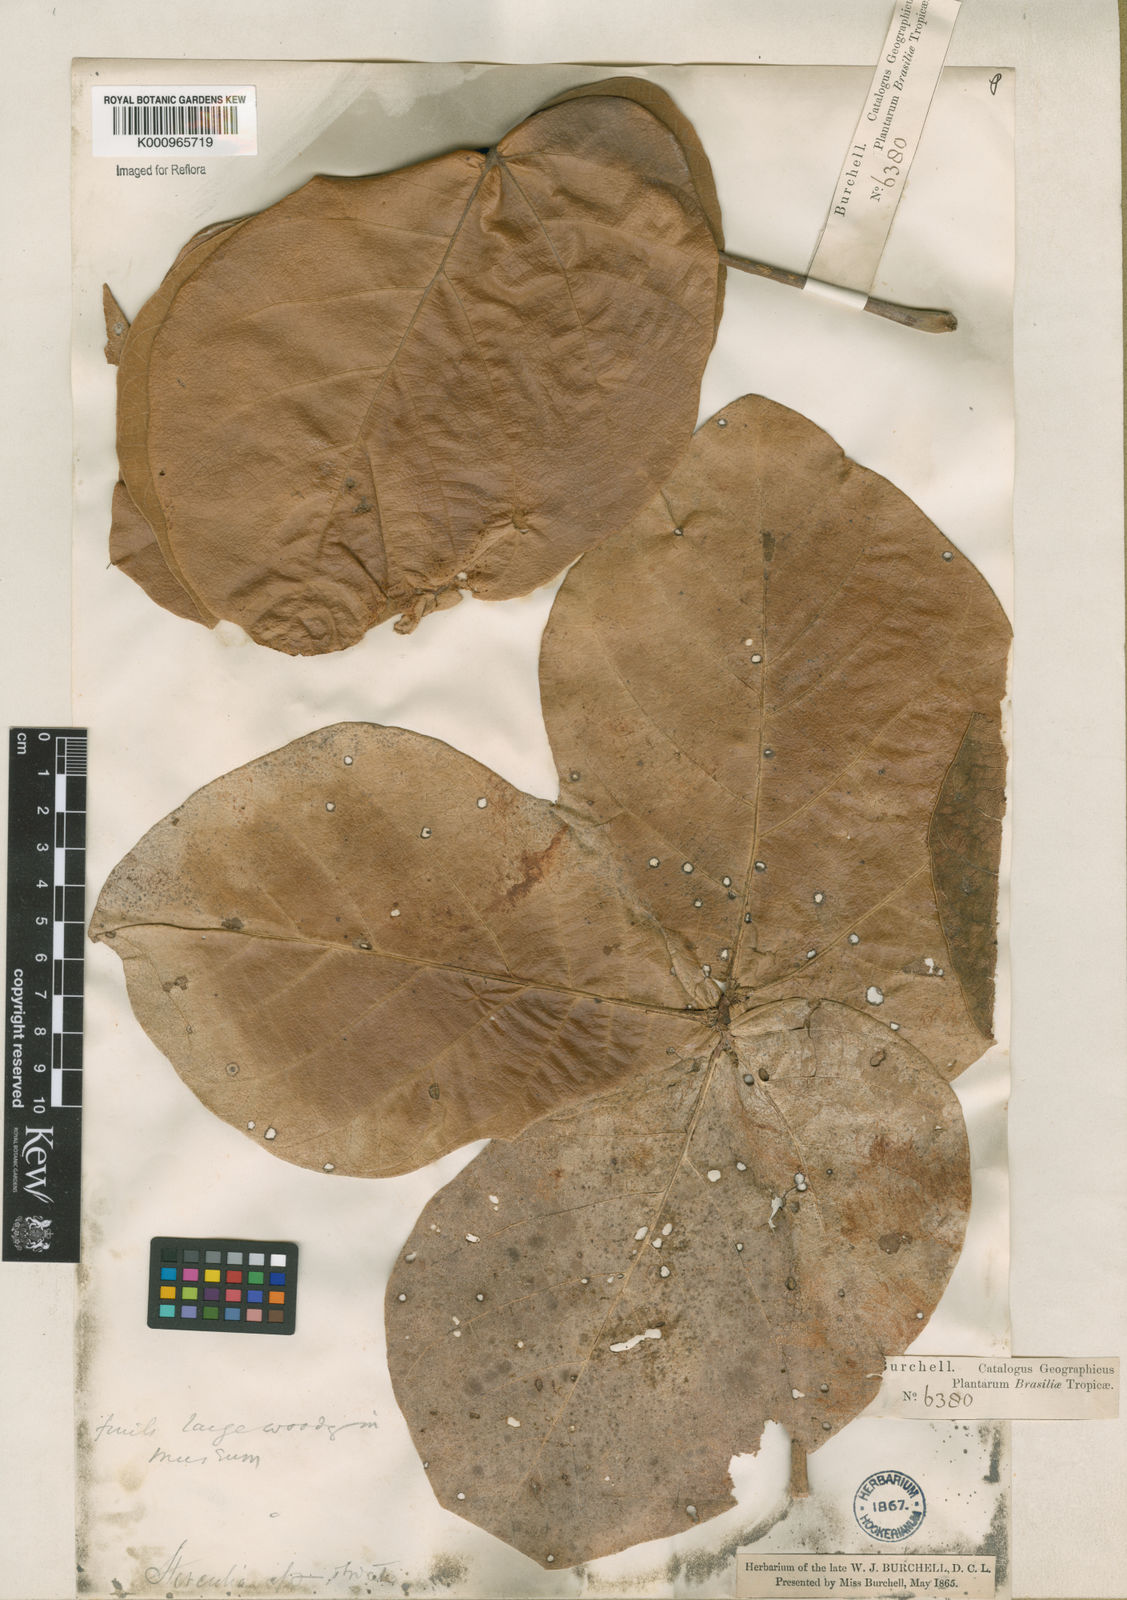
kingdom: Plantae
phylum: Tracheophyta
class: Magnoliopsida
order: Malvales
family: Malvaceae
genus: Sterculia
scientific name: Sterculia striata
